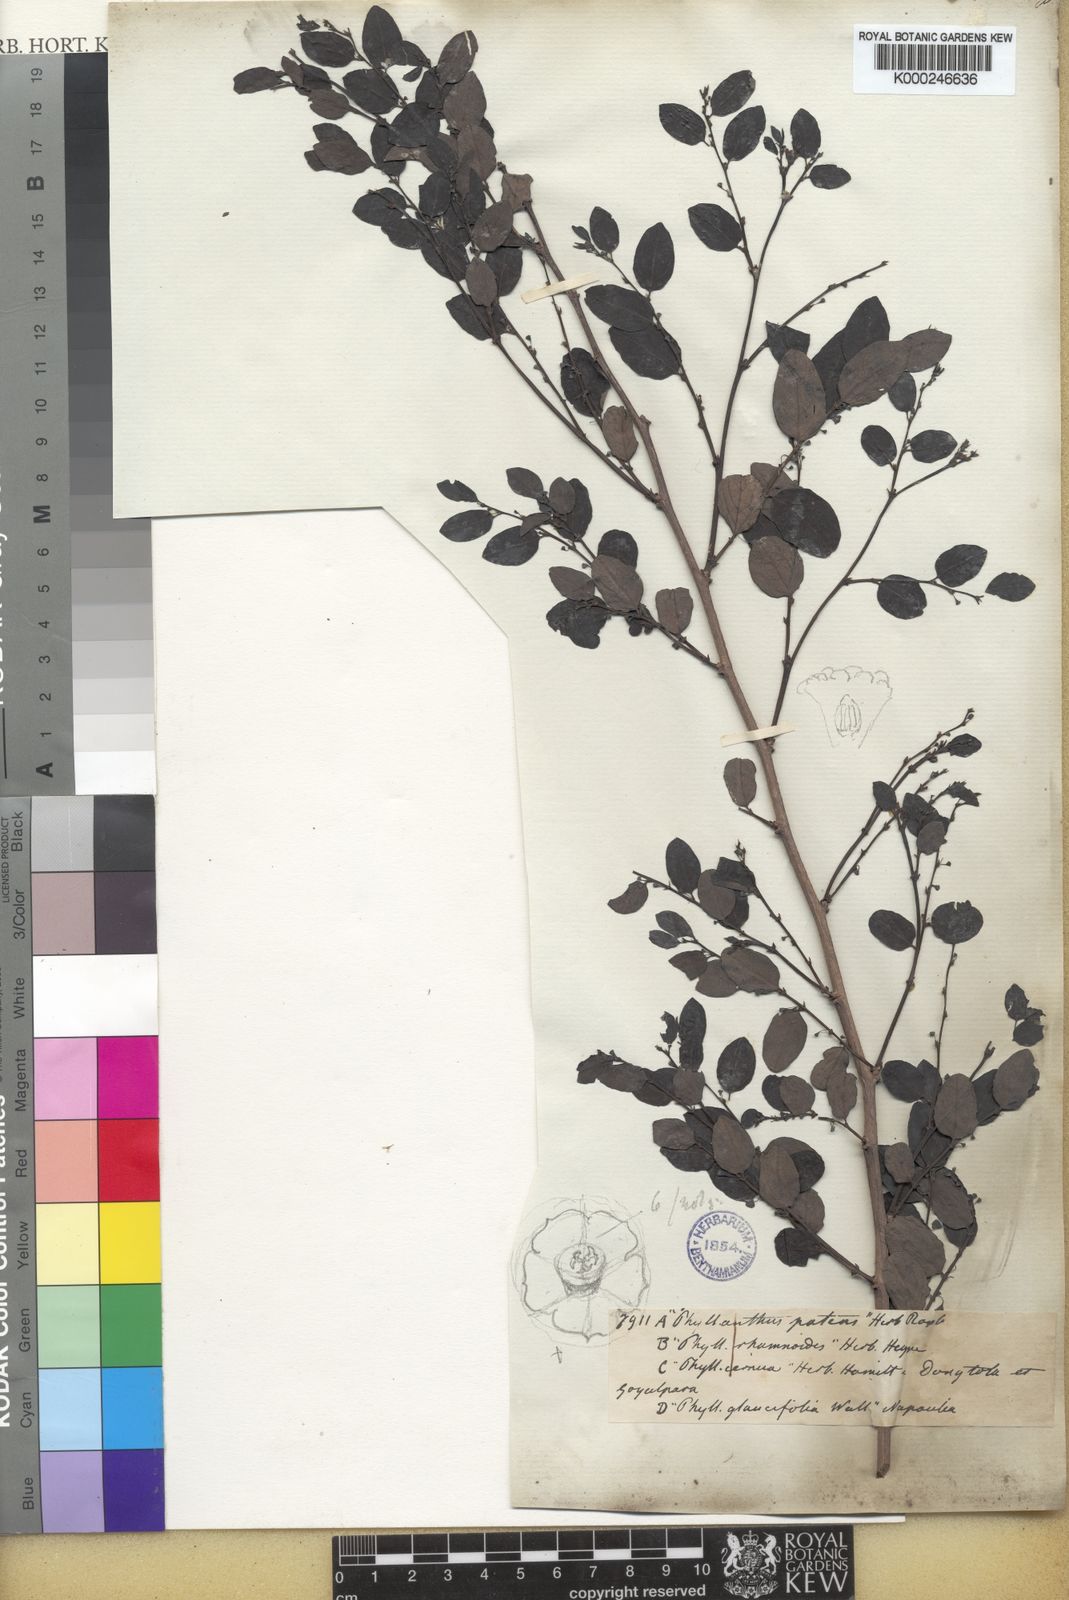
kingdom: Plantae
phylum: Tracheophyta
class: Magnoliopsida
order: Malpighiales
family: Phyllanthaceae
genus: Breynia
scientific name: Breynia retusa
